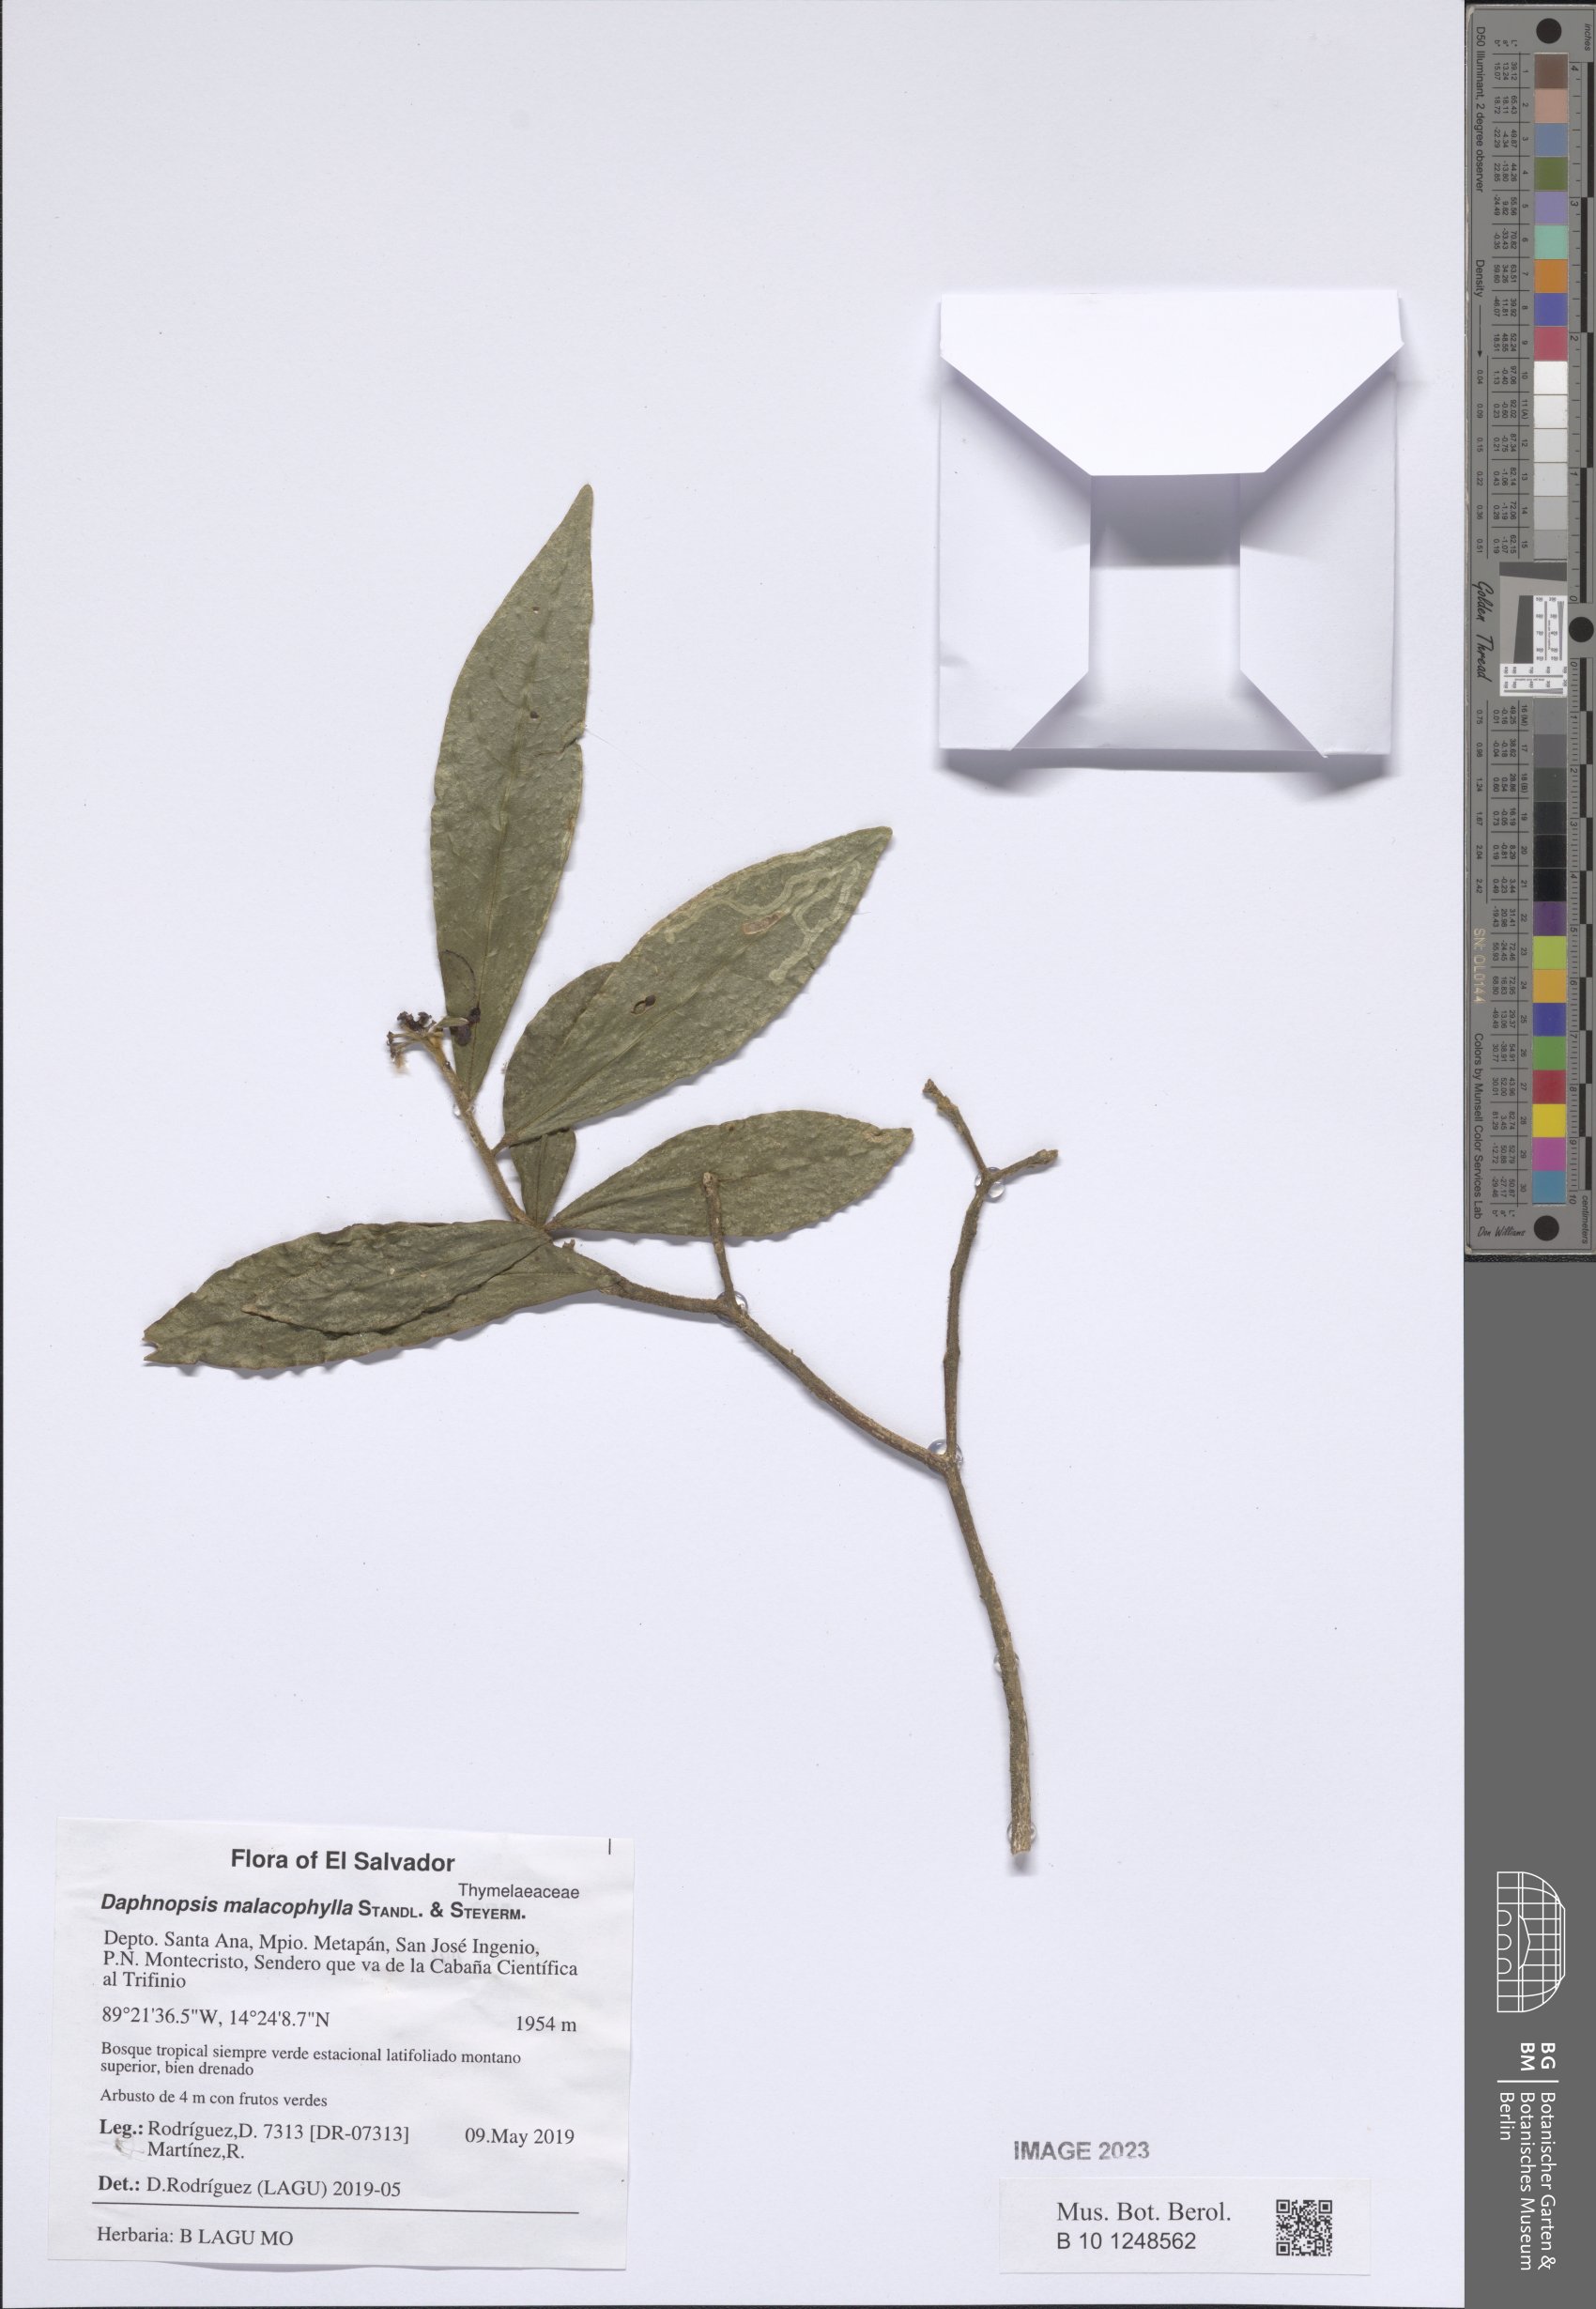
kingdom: Plantae
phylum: Tracheophyta
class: Magnoliopsida
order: Malvales
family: Thymelaeaceae
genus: Daphnopsis
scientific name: Daphnopsis selerorum
